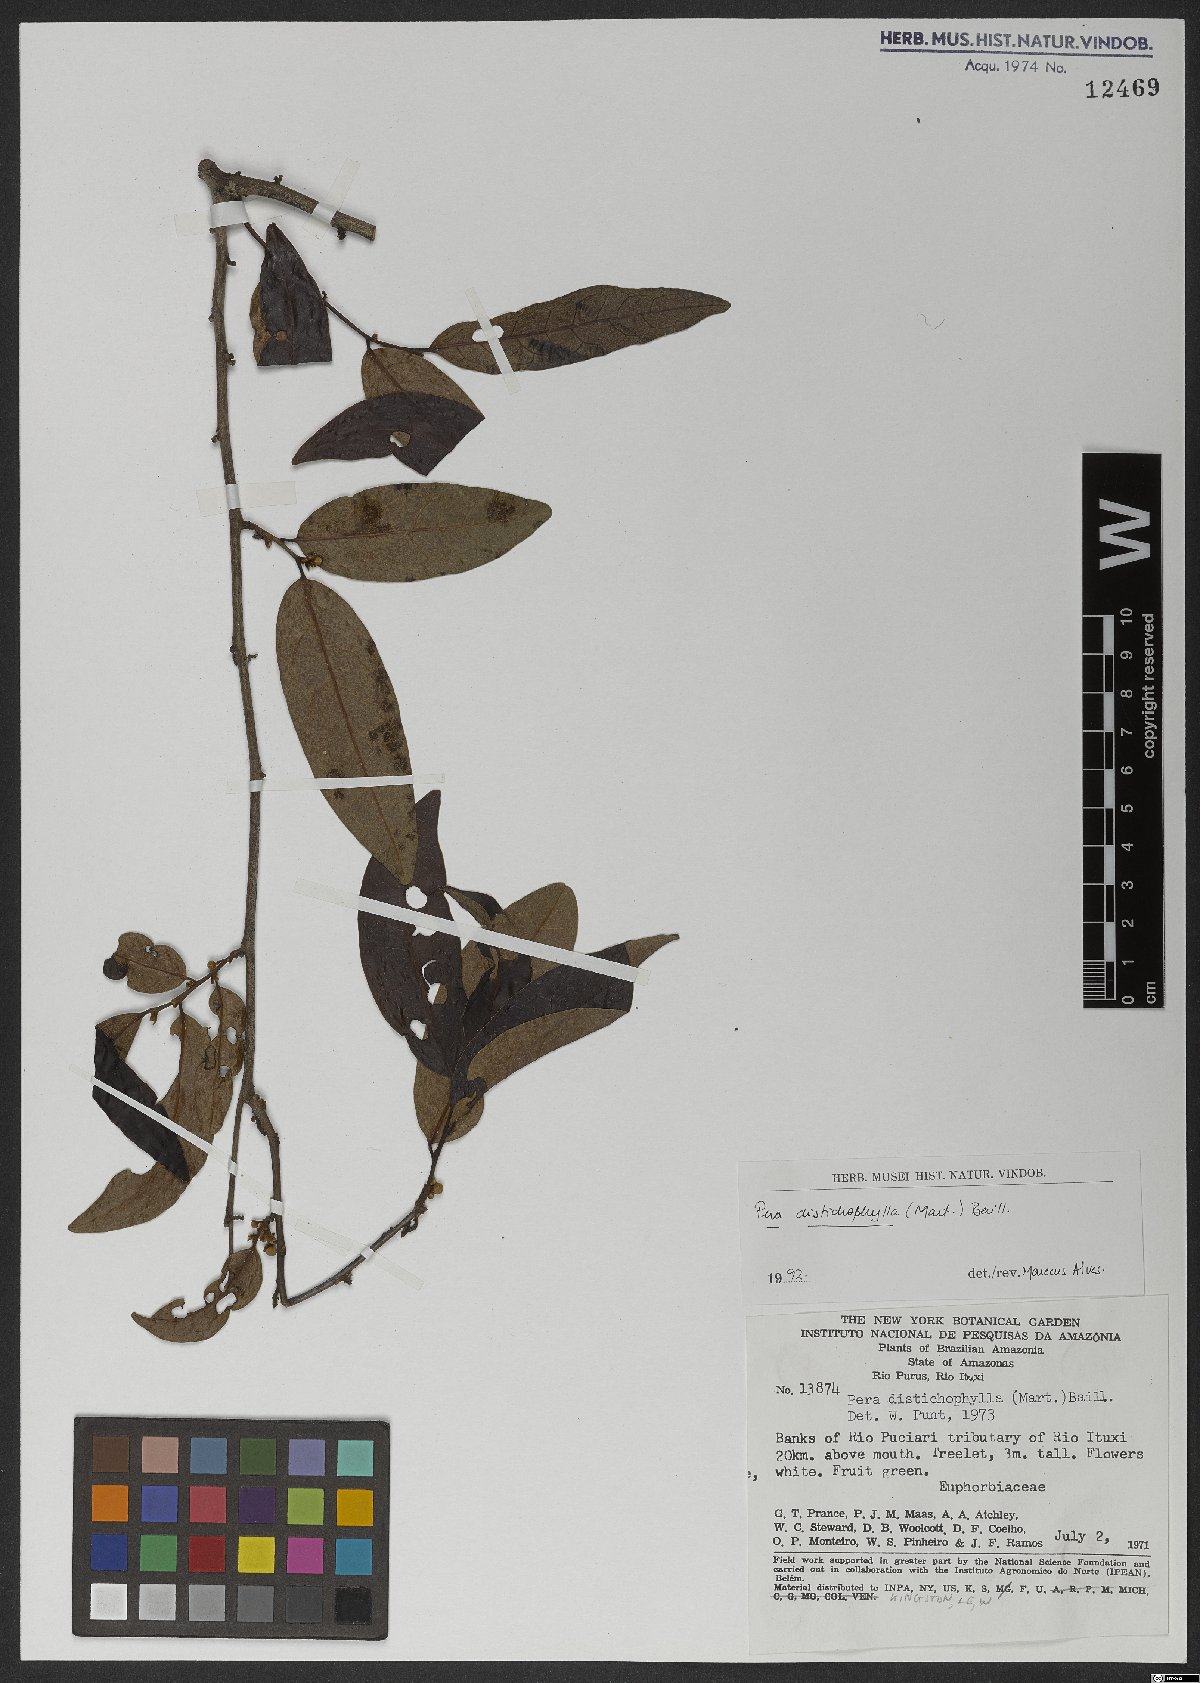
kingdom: Plantae
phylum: Tracheophyta
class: Magnoliopsida
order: Malpighiales
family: Peraceae
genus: Pera
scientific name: Pera distichophylla
